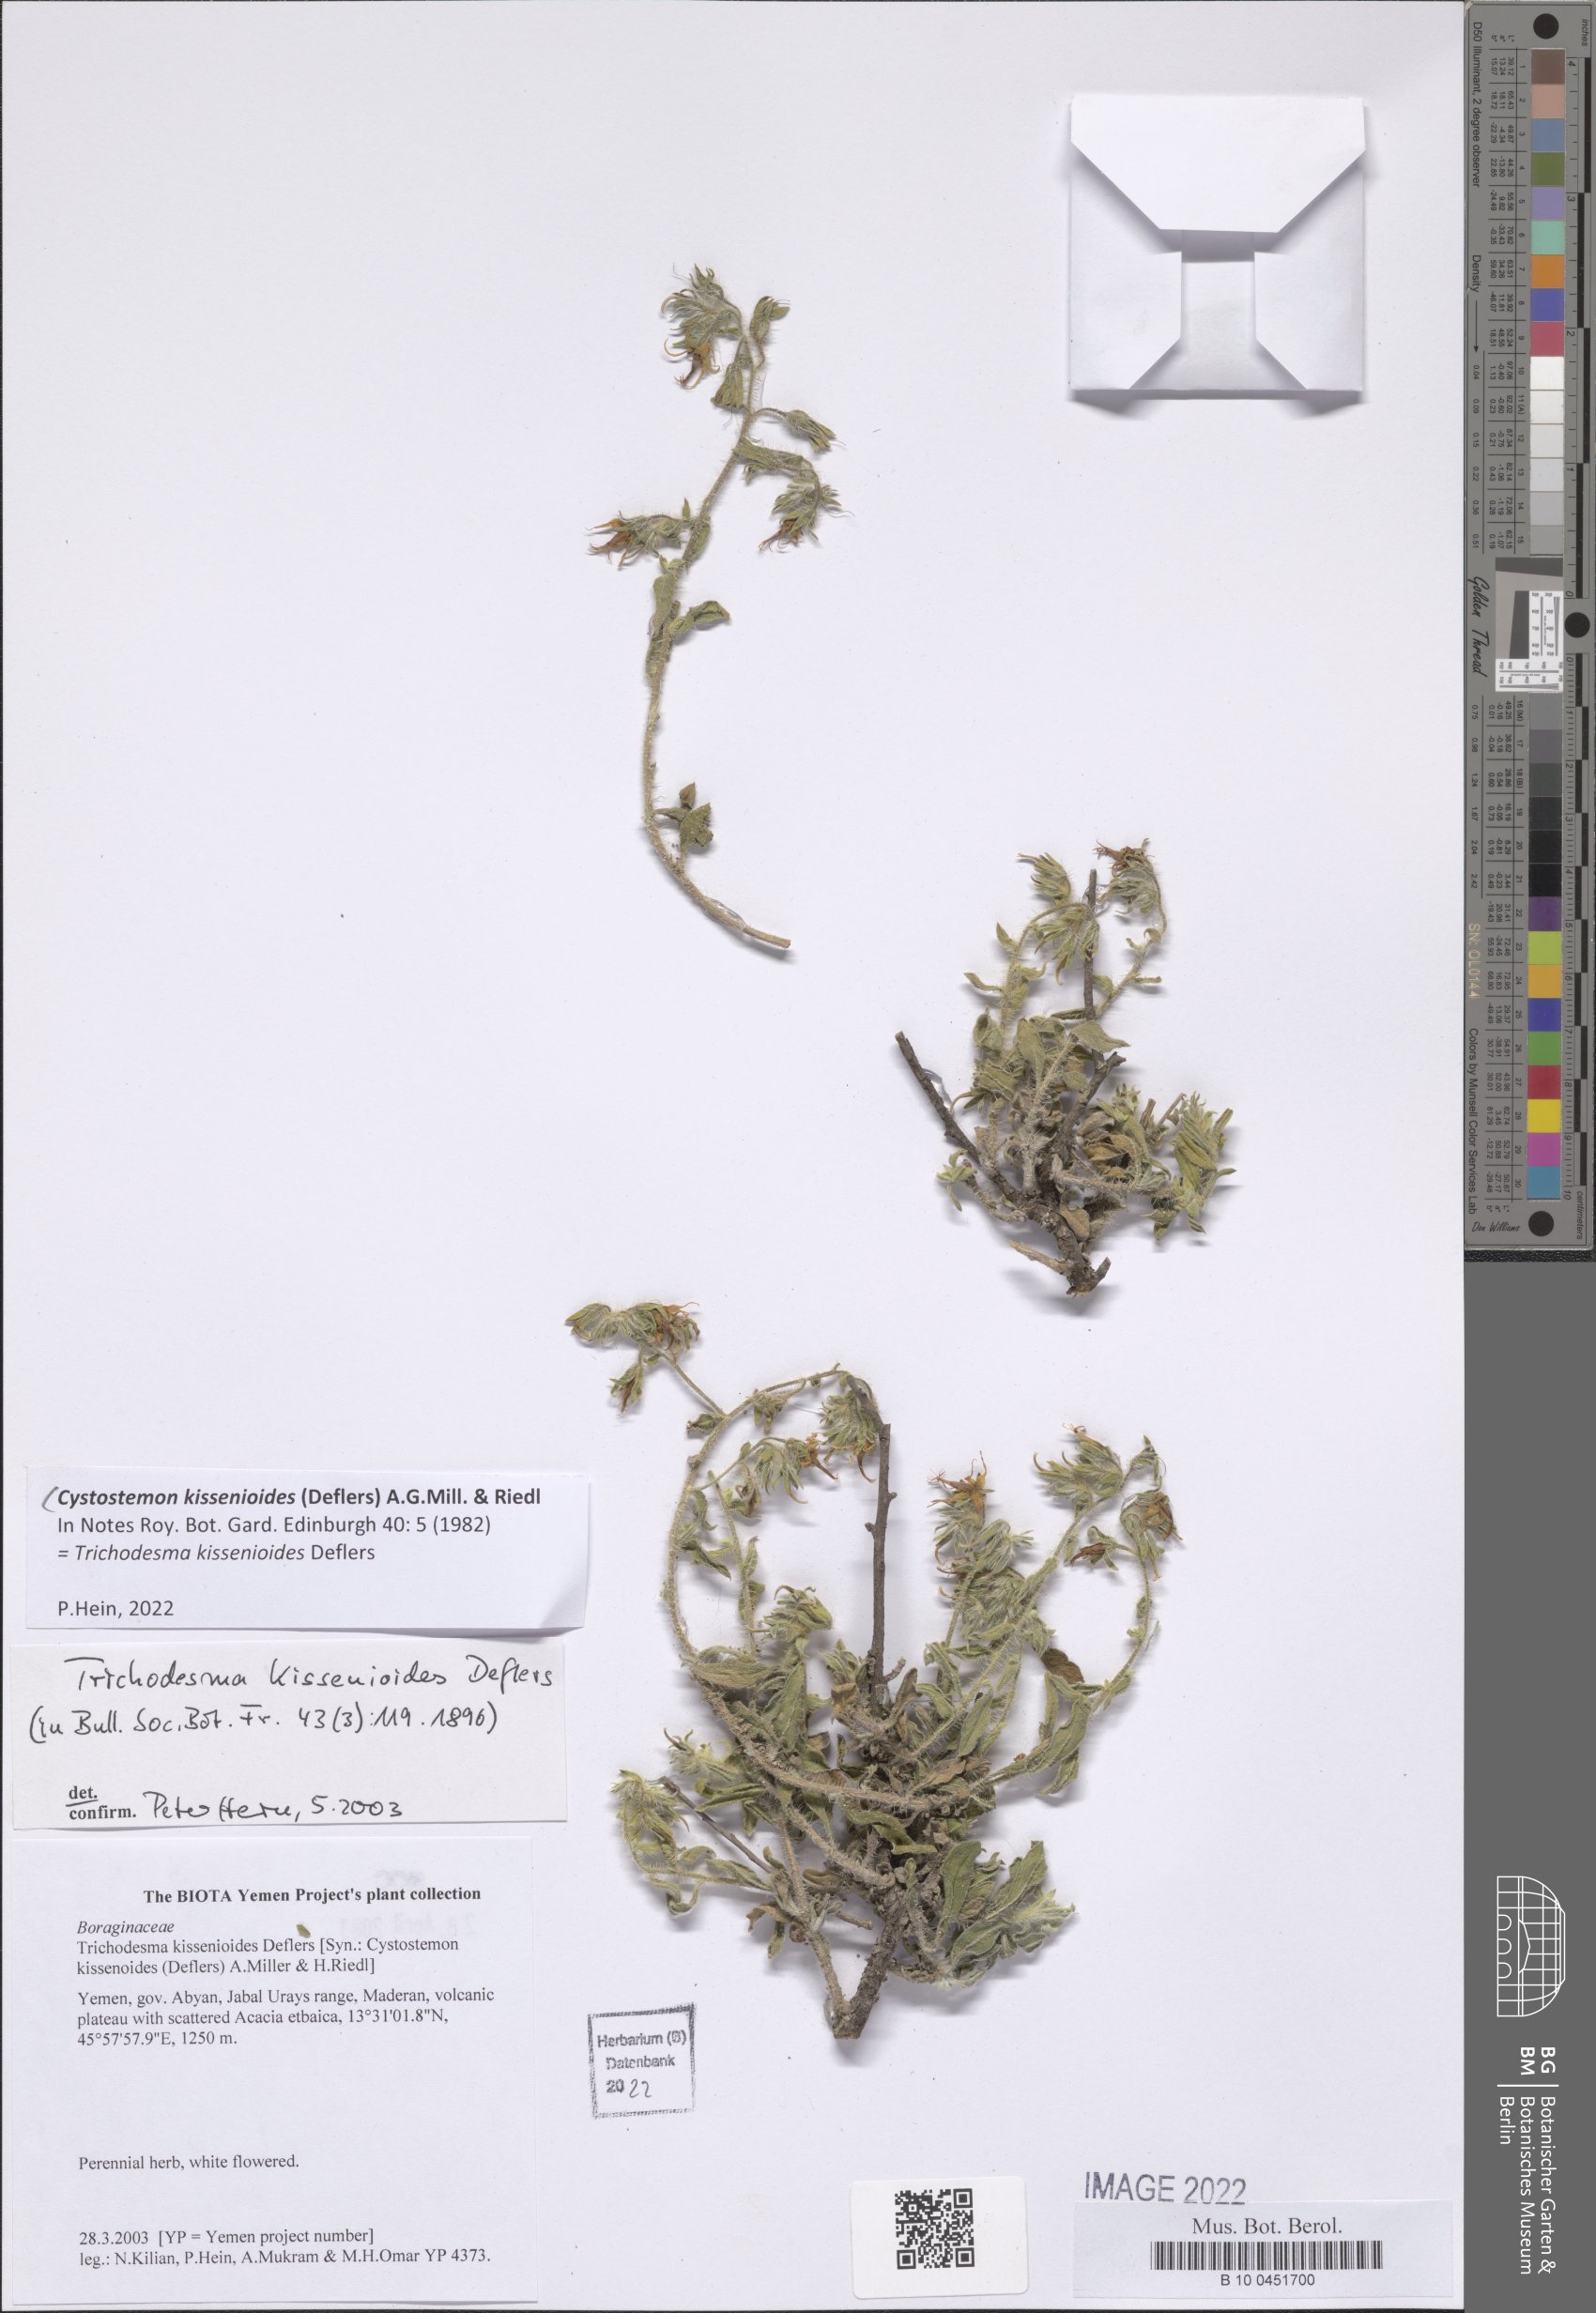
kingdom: Plantae
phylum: Tracheophyta
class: Magnoliopsida
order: Boraginales
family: Boraginaceae
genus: Cystostemon
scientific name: Cystostemon kissenioides
